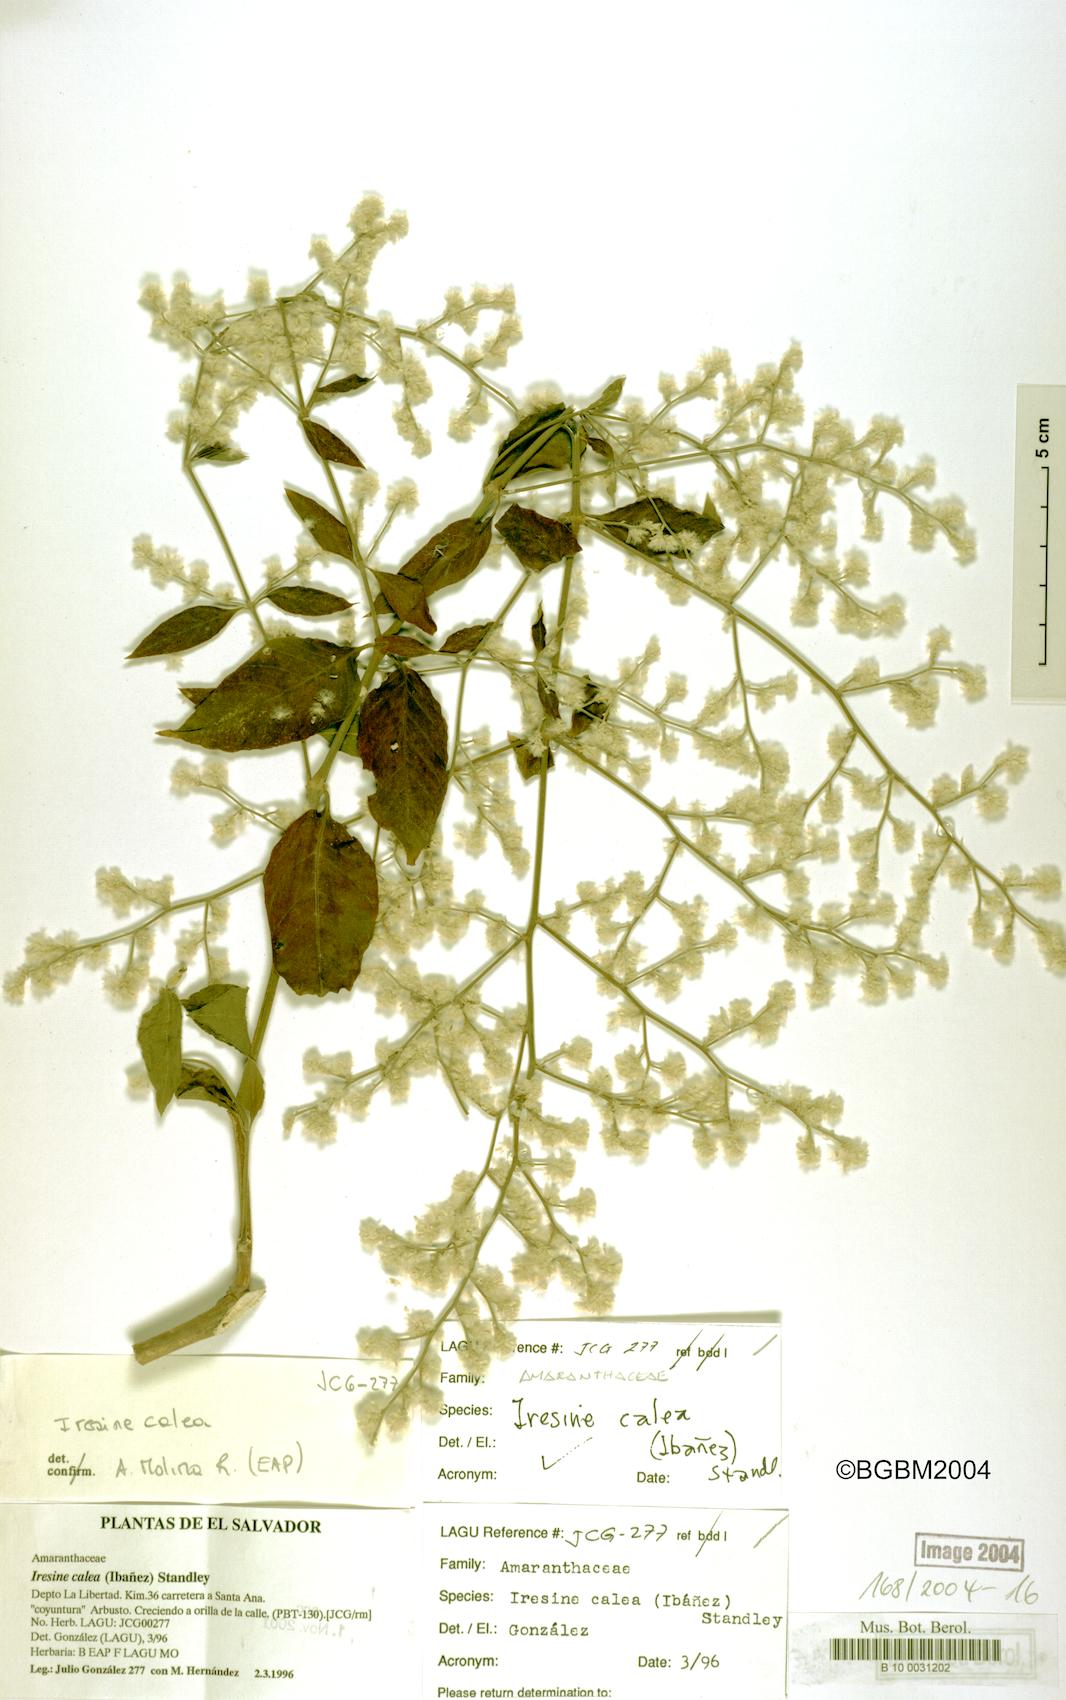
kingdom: Plantae
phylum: Tracheophyta
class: Magnoliopsida
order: Caryophyllales
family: Amaranthaceae
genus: Iresine
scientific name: Iresine latifolia
